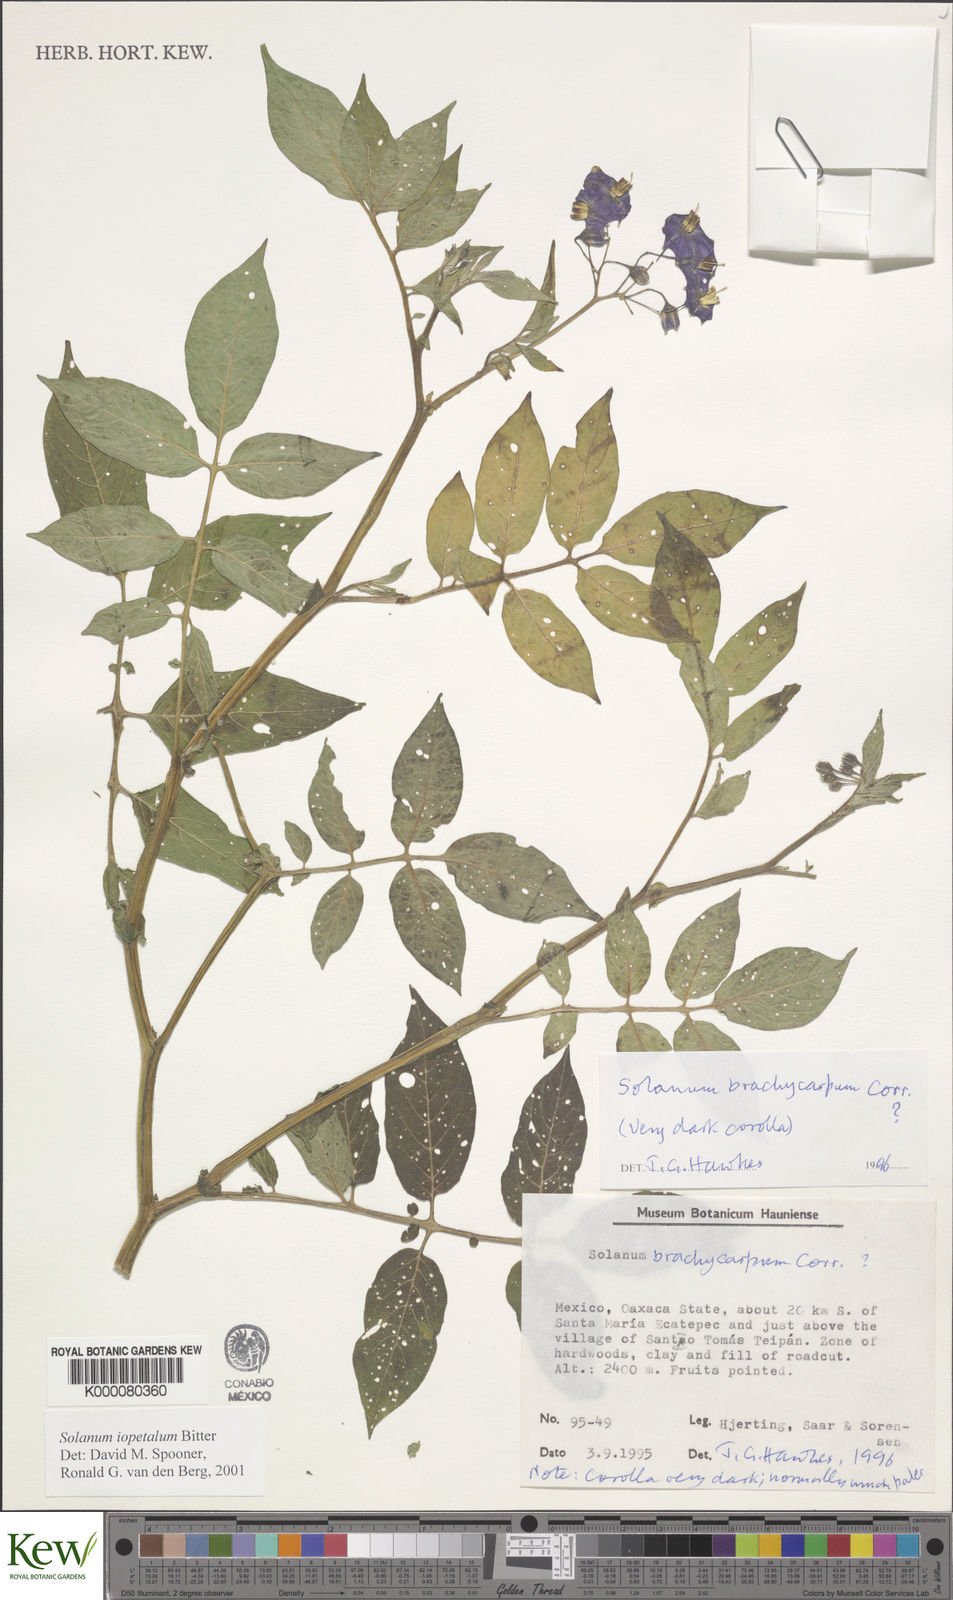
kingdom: Plantae
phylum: Tracheophyta
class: Magnoliopsida
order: Solanales
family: Solanaceae
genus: Solanum
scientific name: Solanum iopetalum
